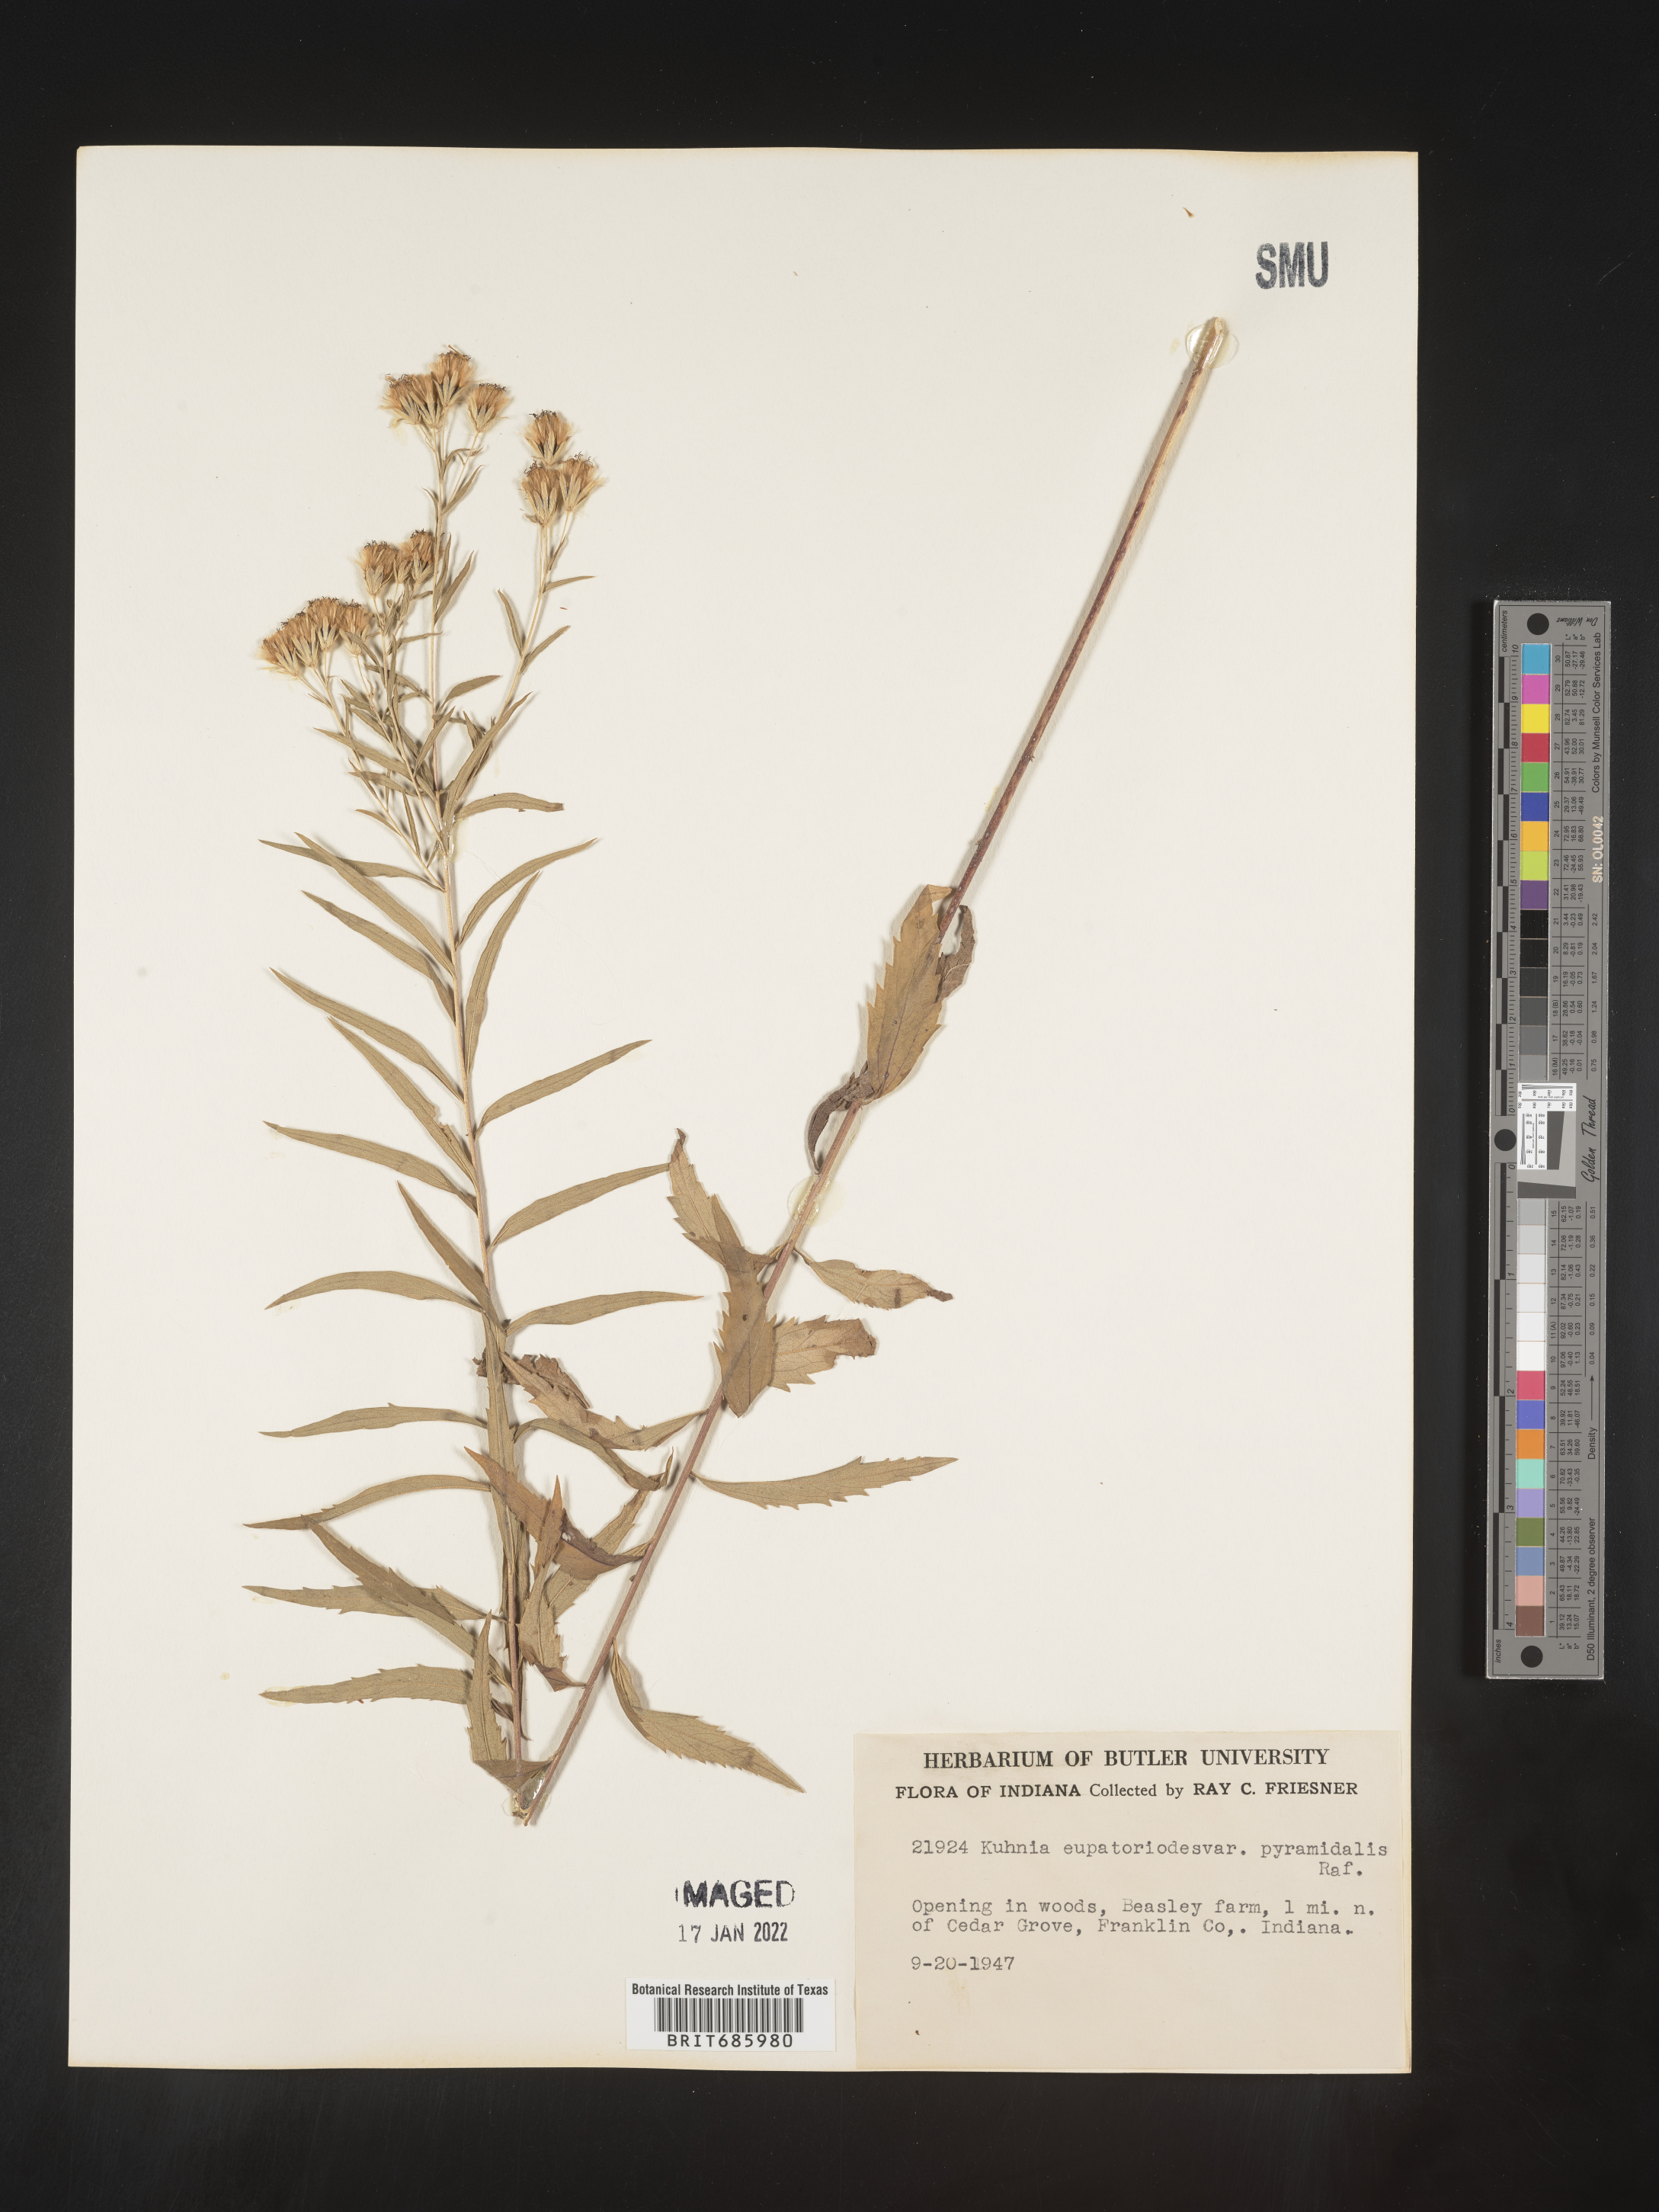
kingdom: Plantae
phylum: Tracheophyta
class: Magnoliopsida
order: Asterales
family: Asteraceae
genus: Brickellia
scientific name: Brickellia eupatorioides
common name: False boneset
